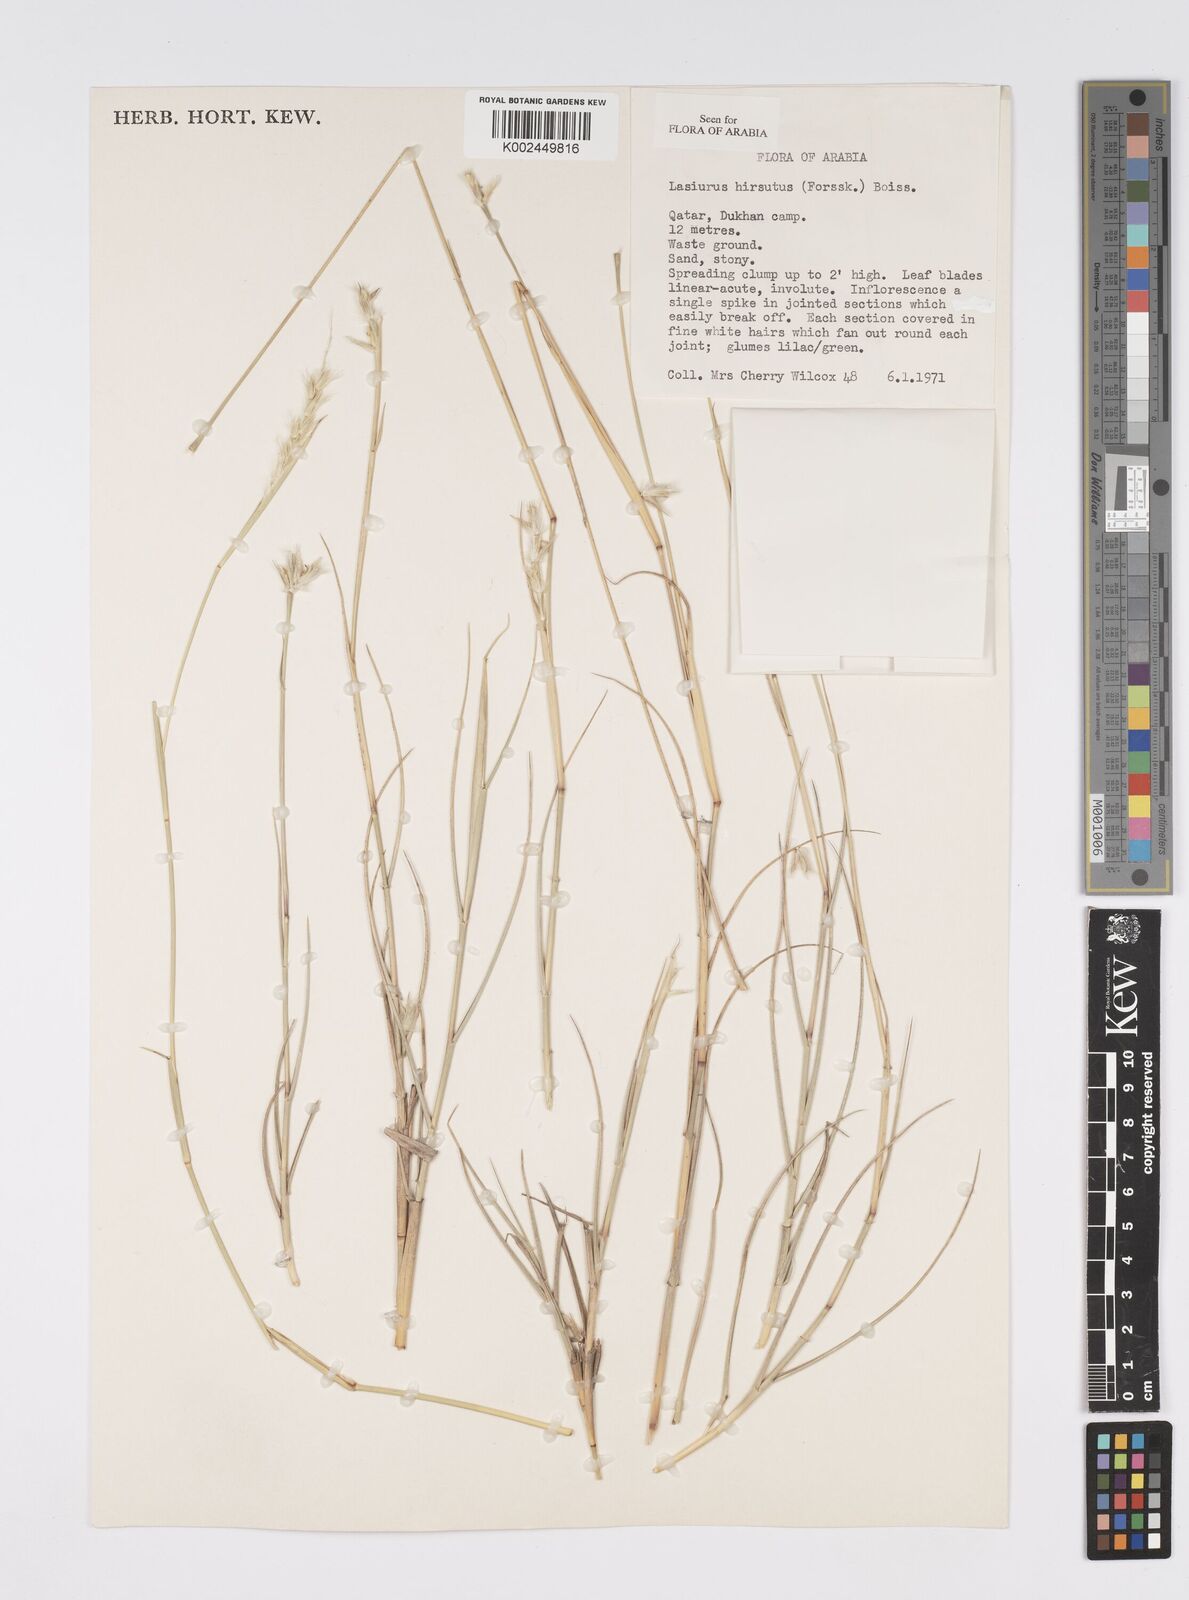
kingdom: Plantae
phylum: Tracheophyta
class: Liliopsida
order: Poales
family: Poaceae
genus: Lasiurus
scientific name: Lasiurus scindicus
